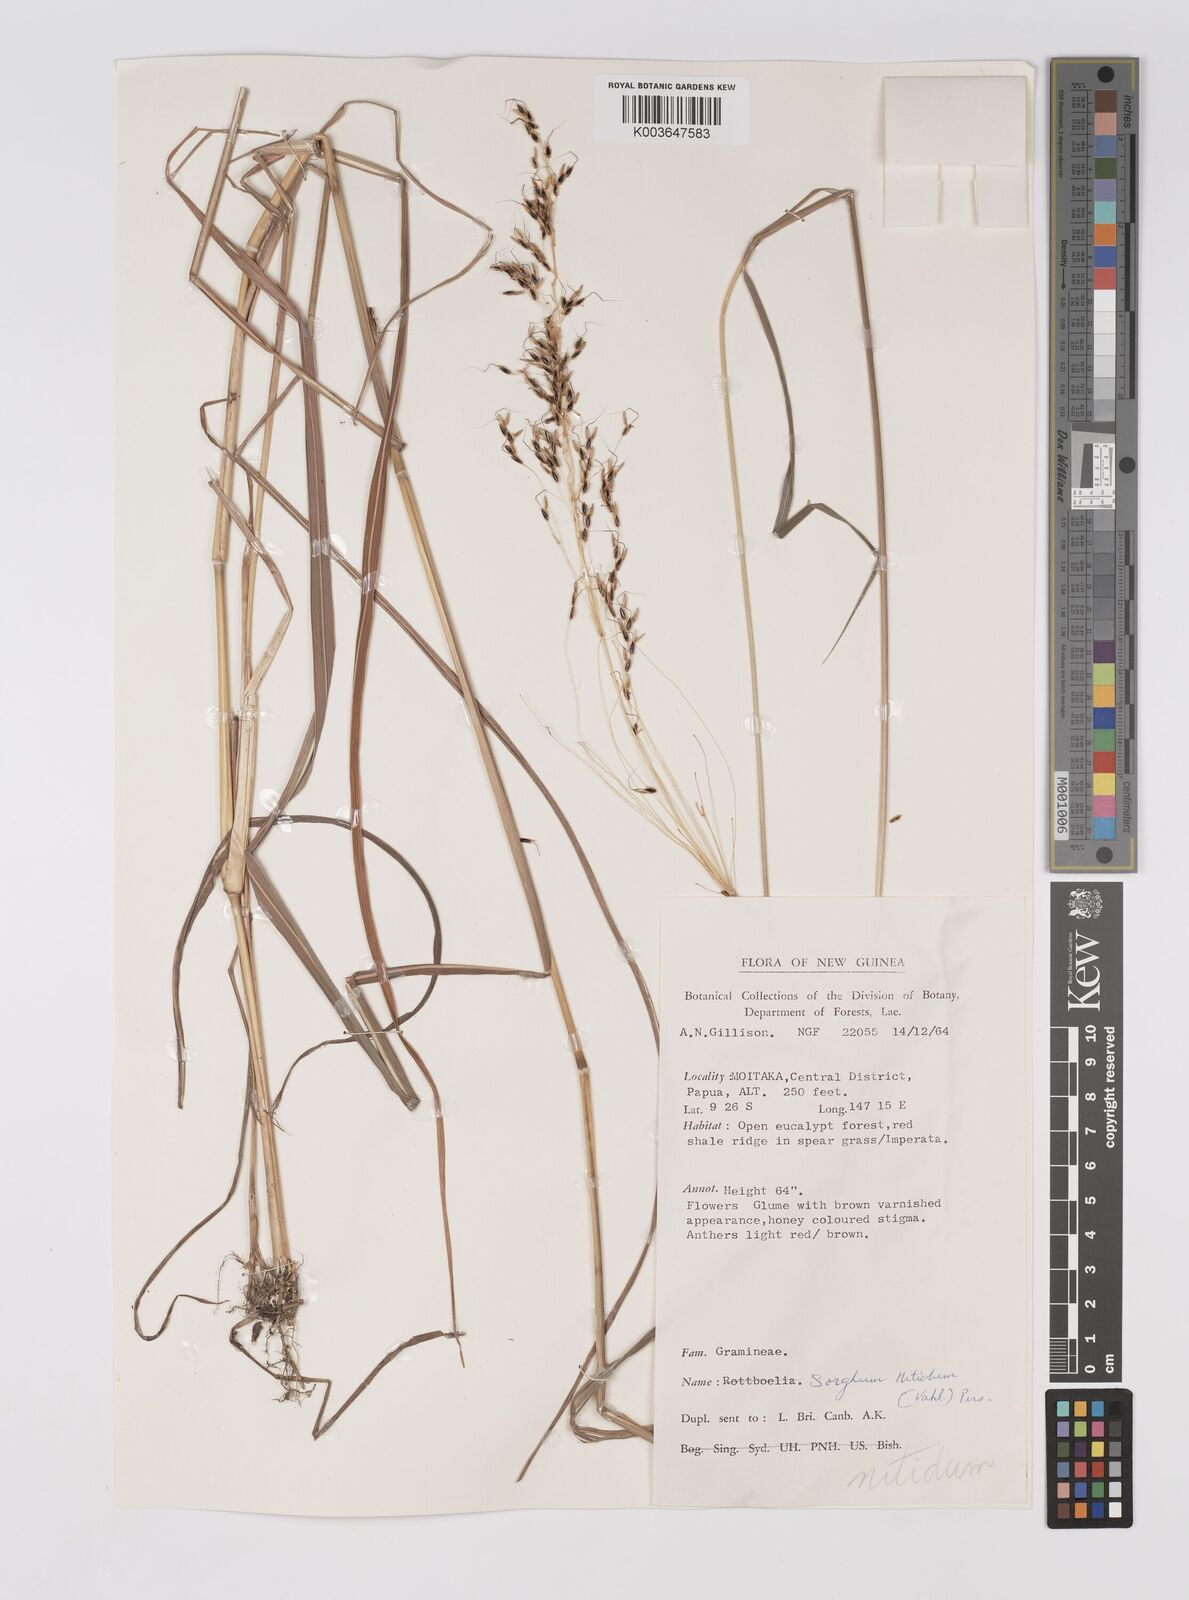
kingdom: Plantae
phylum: Tracheophyta
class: Liliopsida
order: Poales
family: Poaceae
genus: Sorghum
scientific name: Sorghum nitidum
